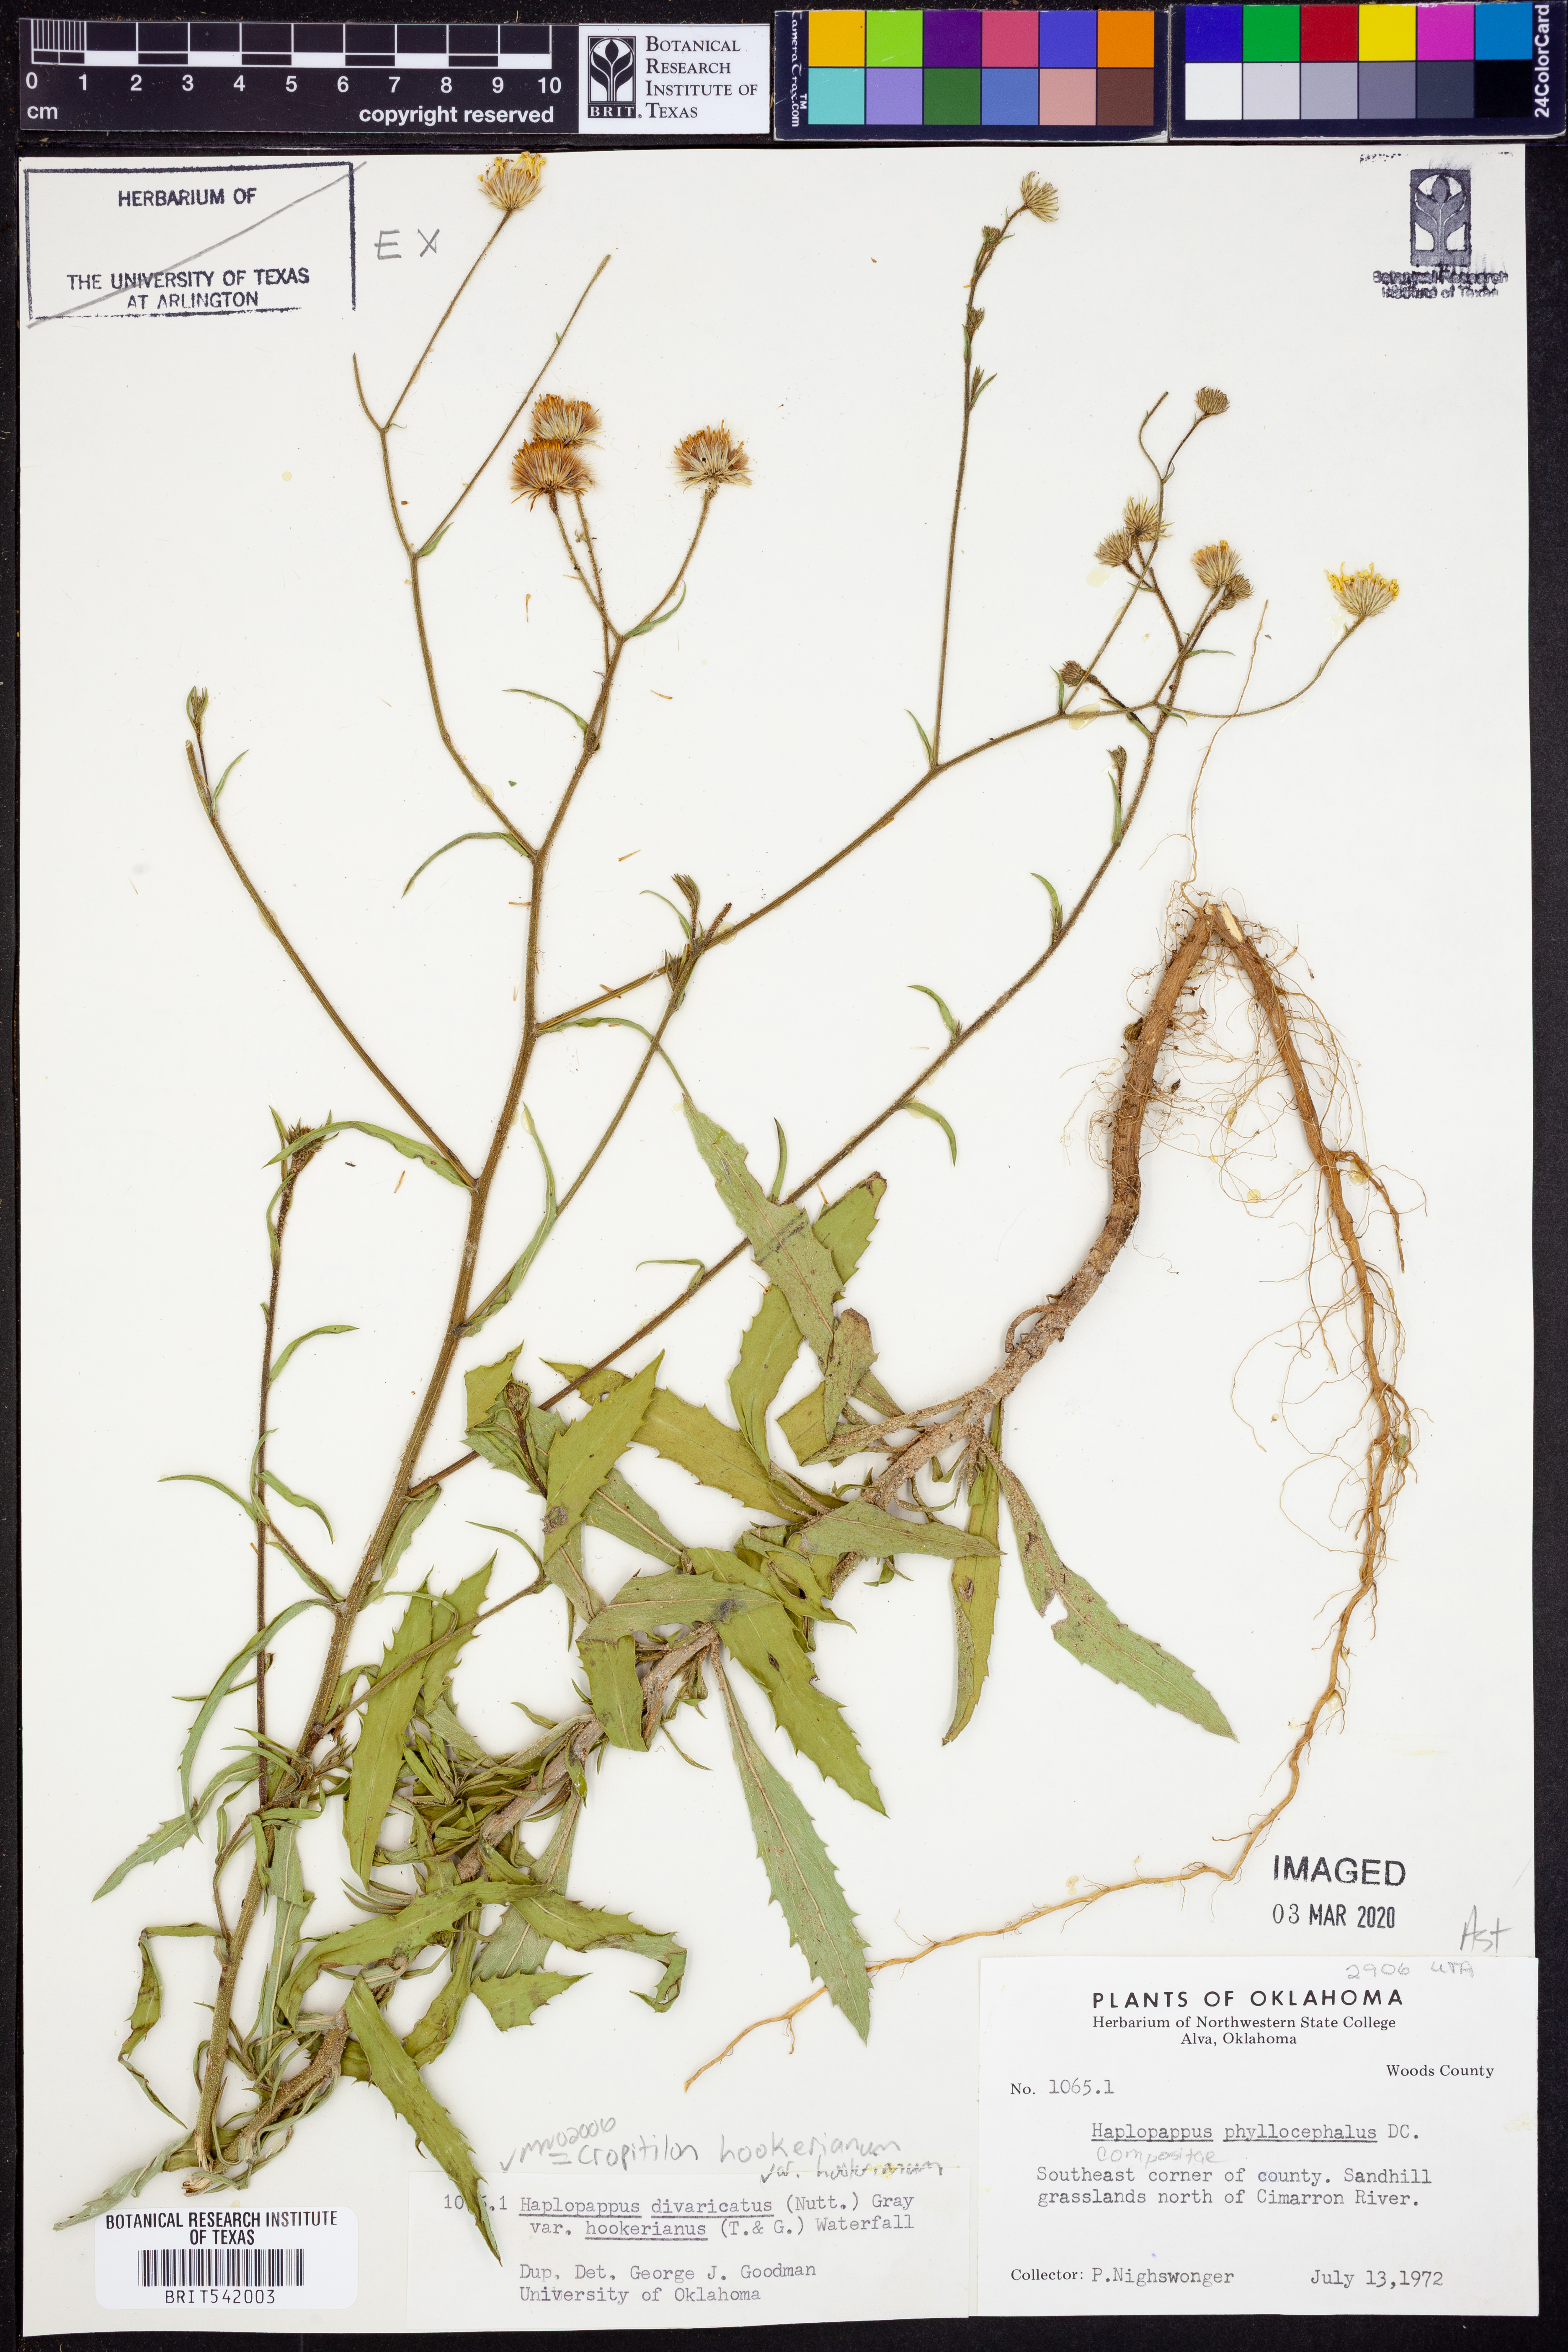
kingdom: Plantae
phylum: Tracheophyta
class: Magnoliopsida
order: Asterales
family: Asteraceae
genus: Croptilon
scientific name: Croptilon hookerianum
